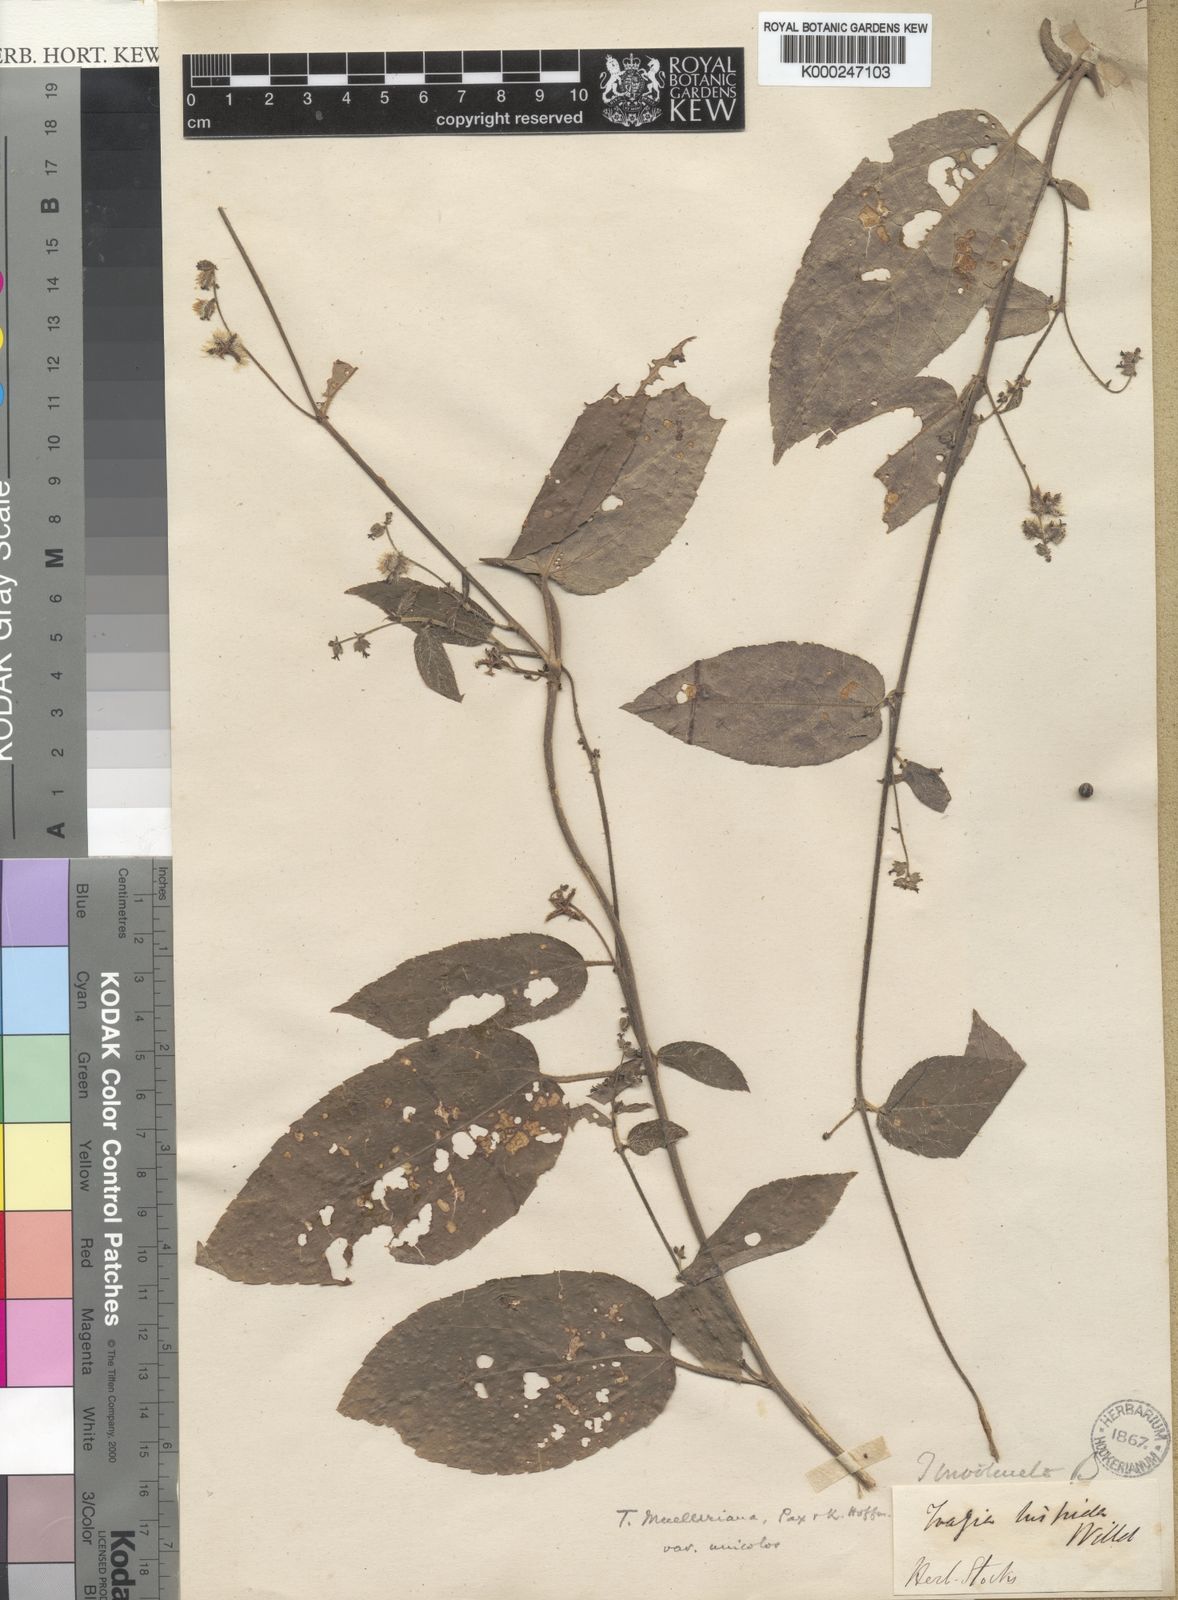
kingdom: Plantae
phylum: Tracheophyta
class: Magnoliopsida
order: Malpighiales
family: Euphorbiaceae
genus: Tragia
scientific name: Tragia montana
